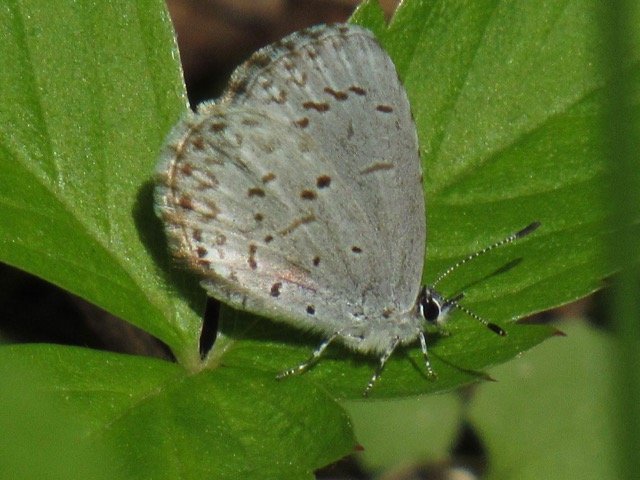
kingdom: Animalia
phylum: Arthropoda
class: Insecta
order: Lepidoptera
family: Lycaenidae
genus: Celastrina
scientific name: Celastrina lucia
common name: Northern Spring Azure
